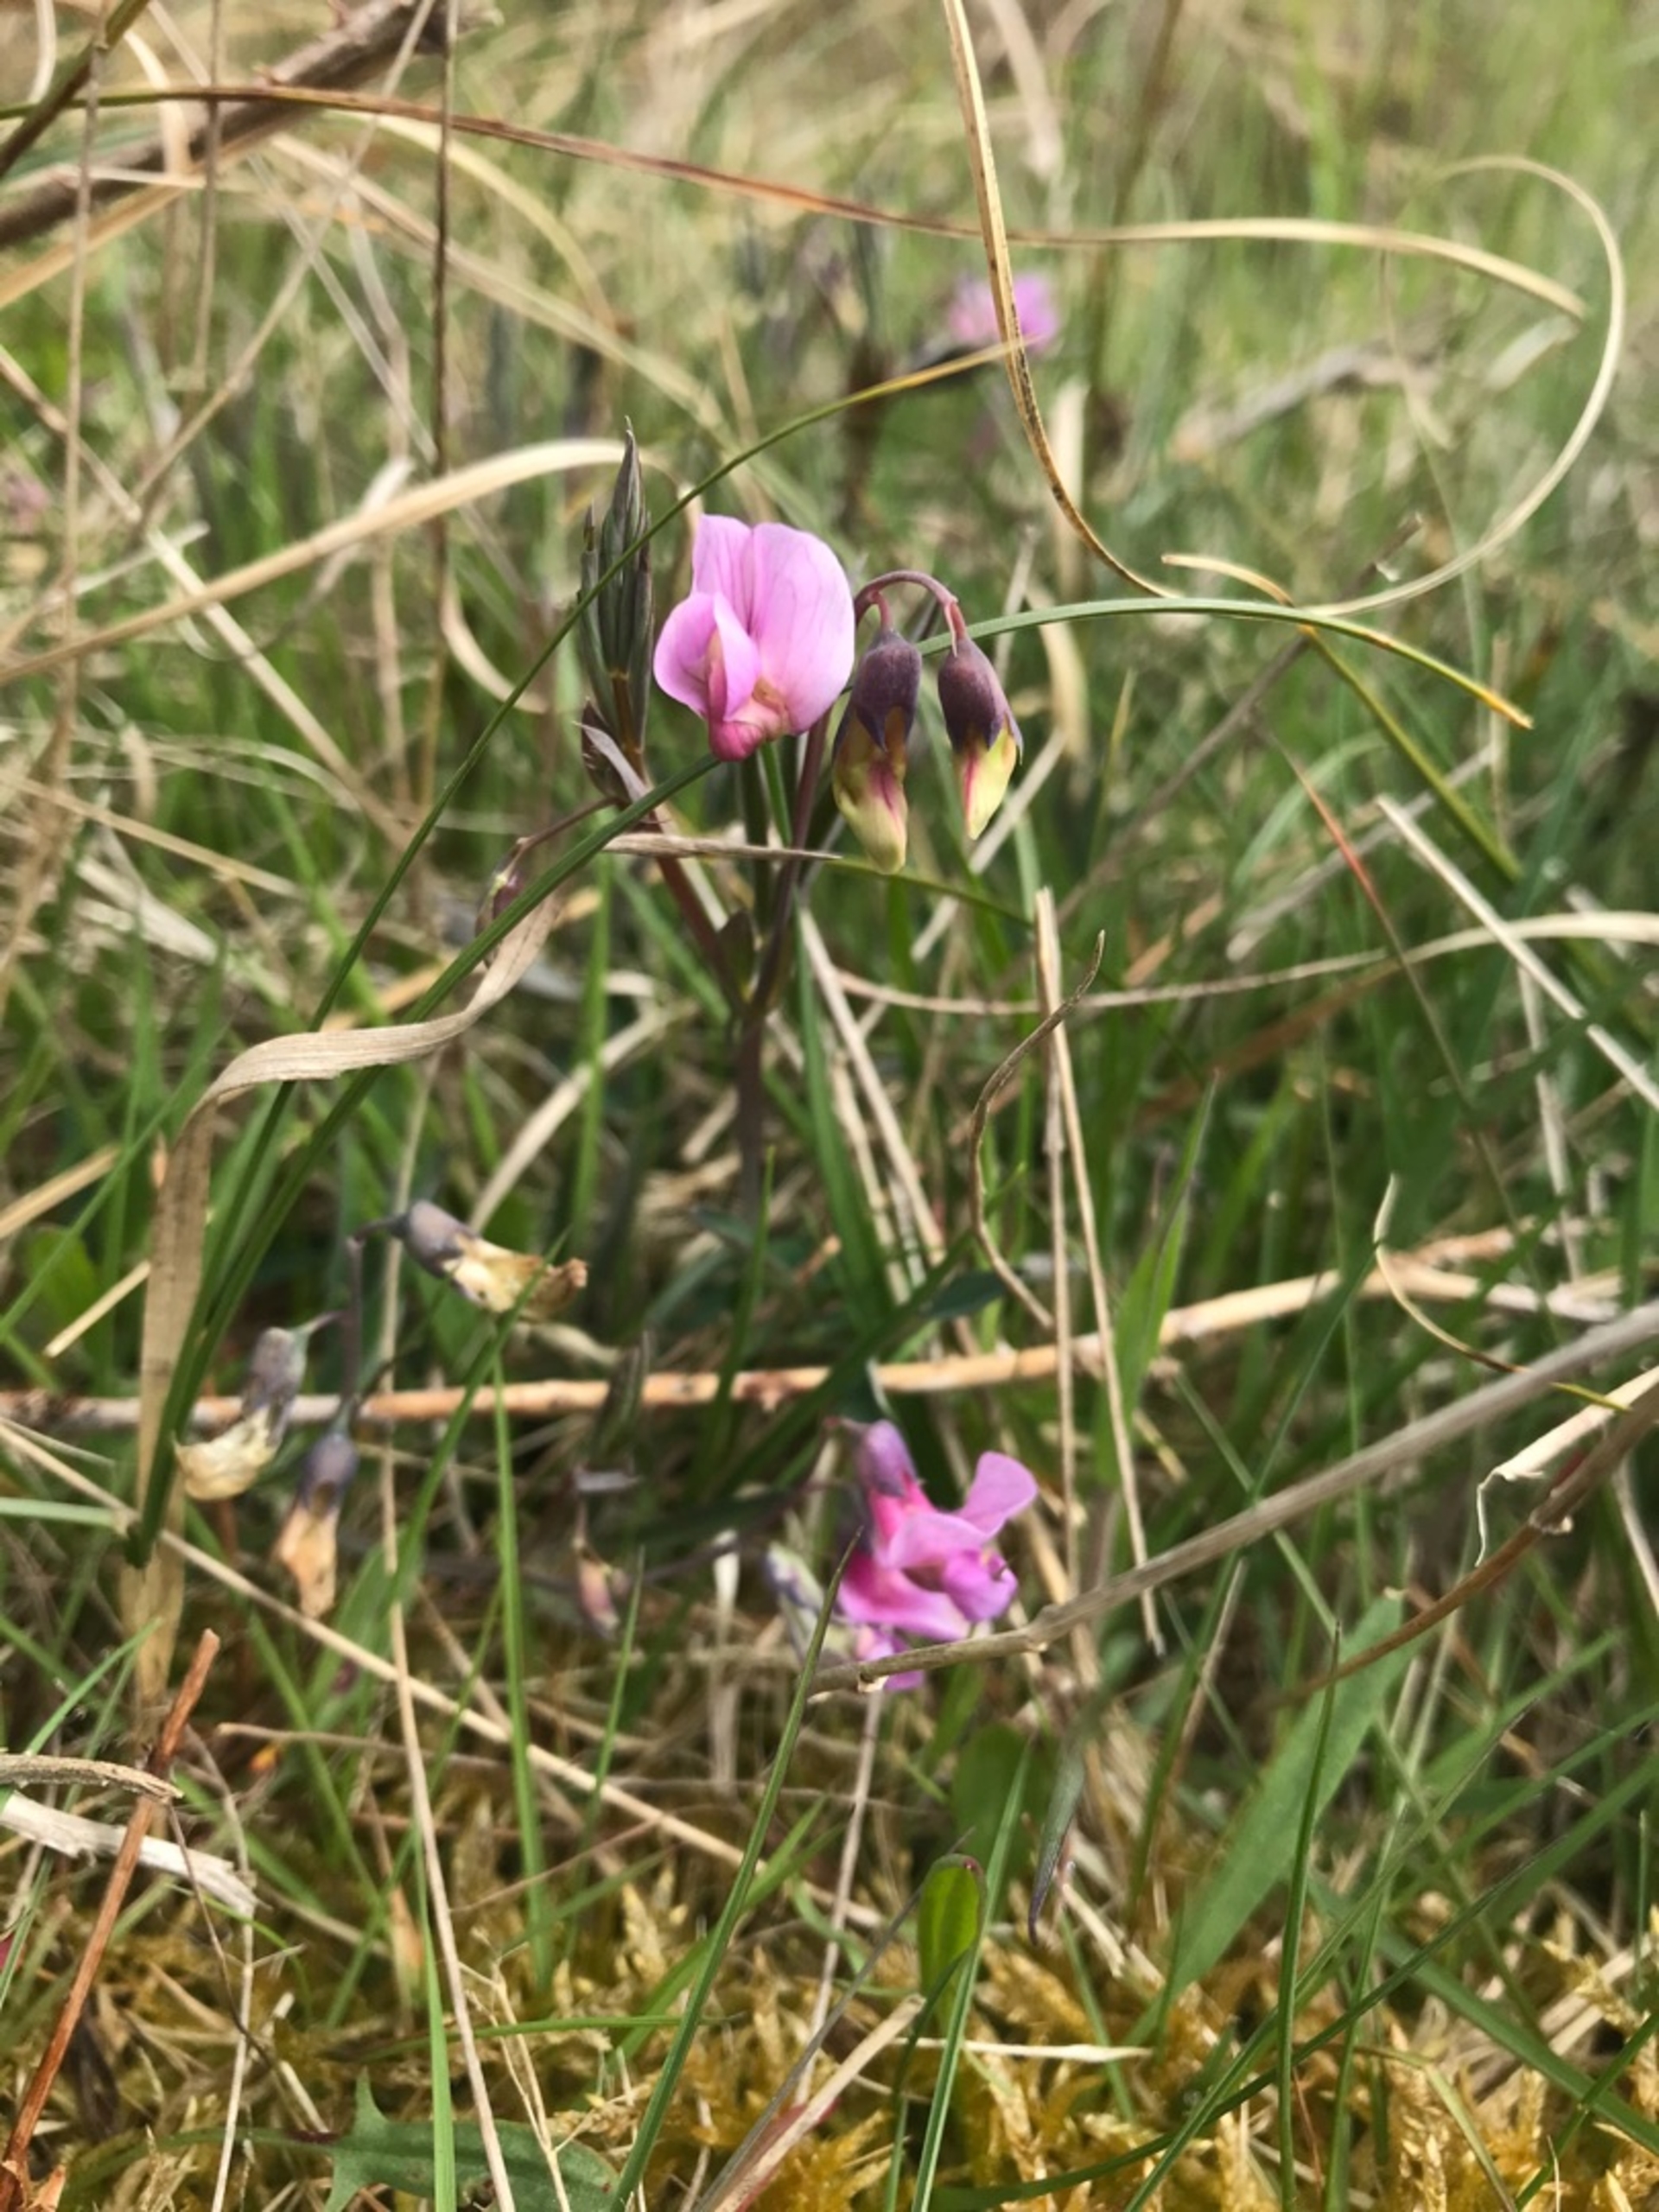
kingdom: Plantae
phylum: Tracheophyta
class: Magnoliopsida
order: Fabales
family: Fabaceae
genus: Lathyrus
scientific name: Lathyrus linifolius
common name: Krat-fladbælg
